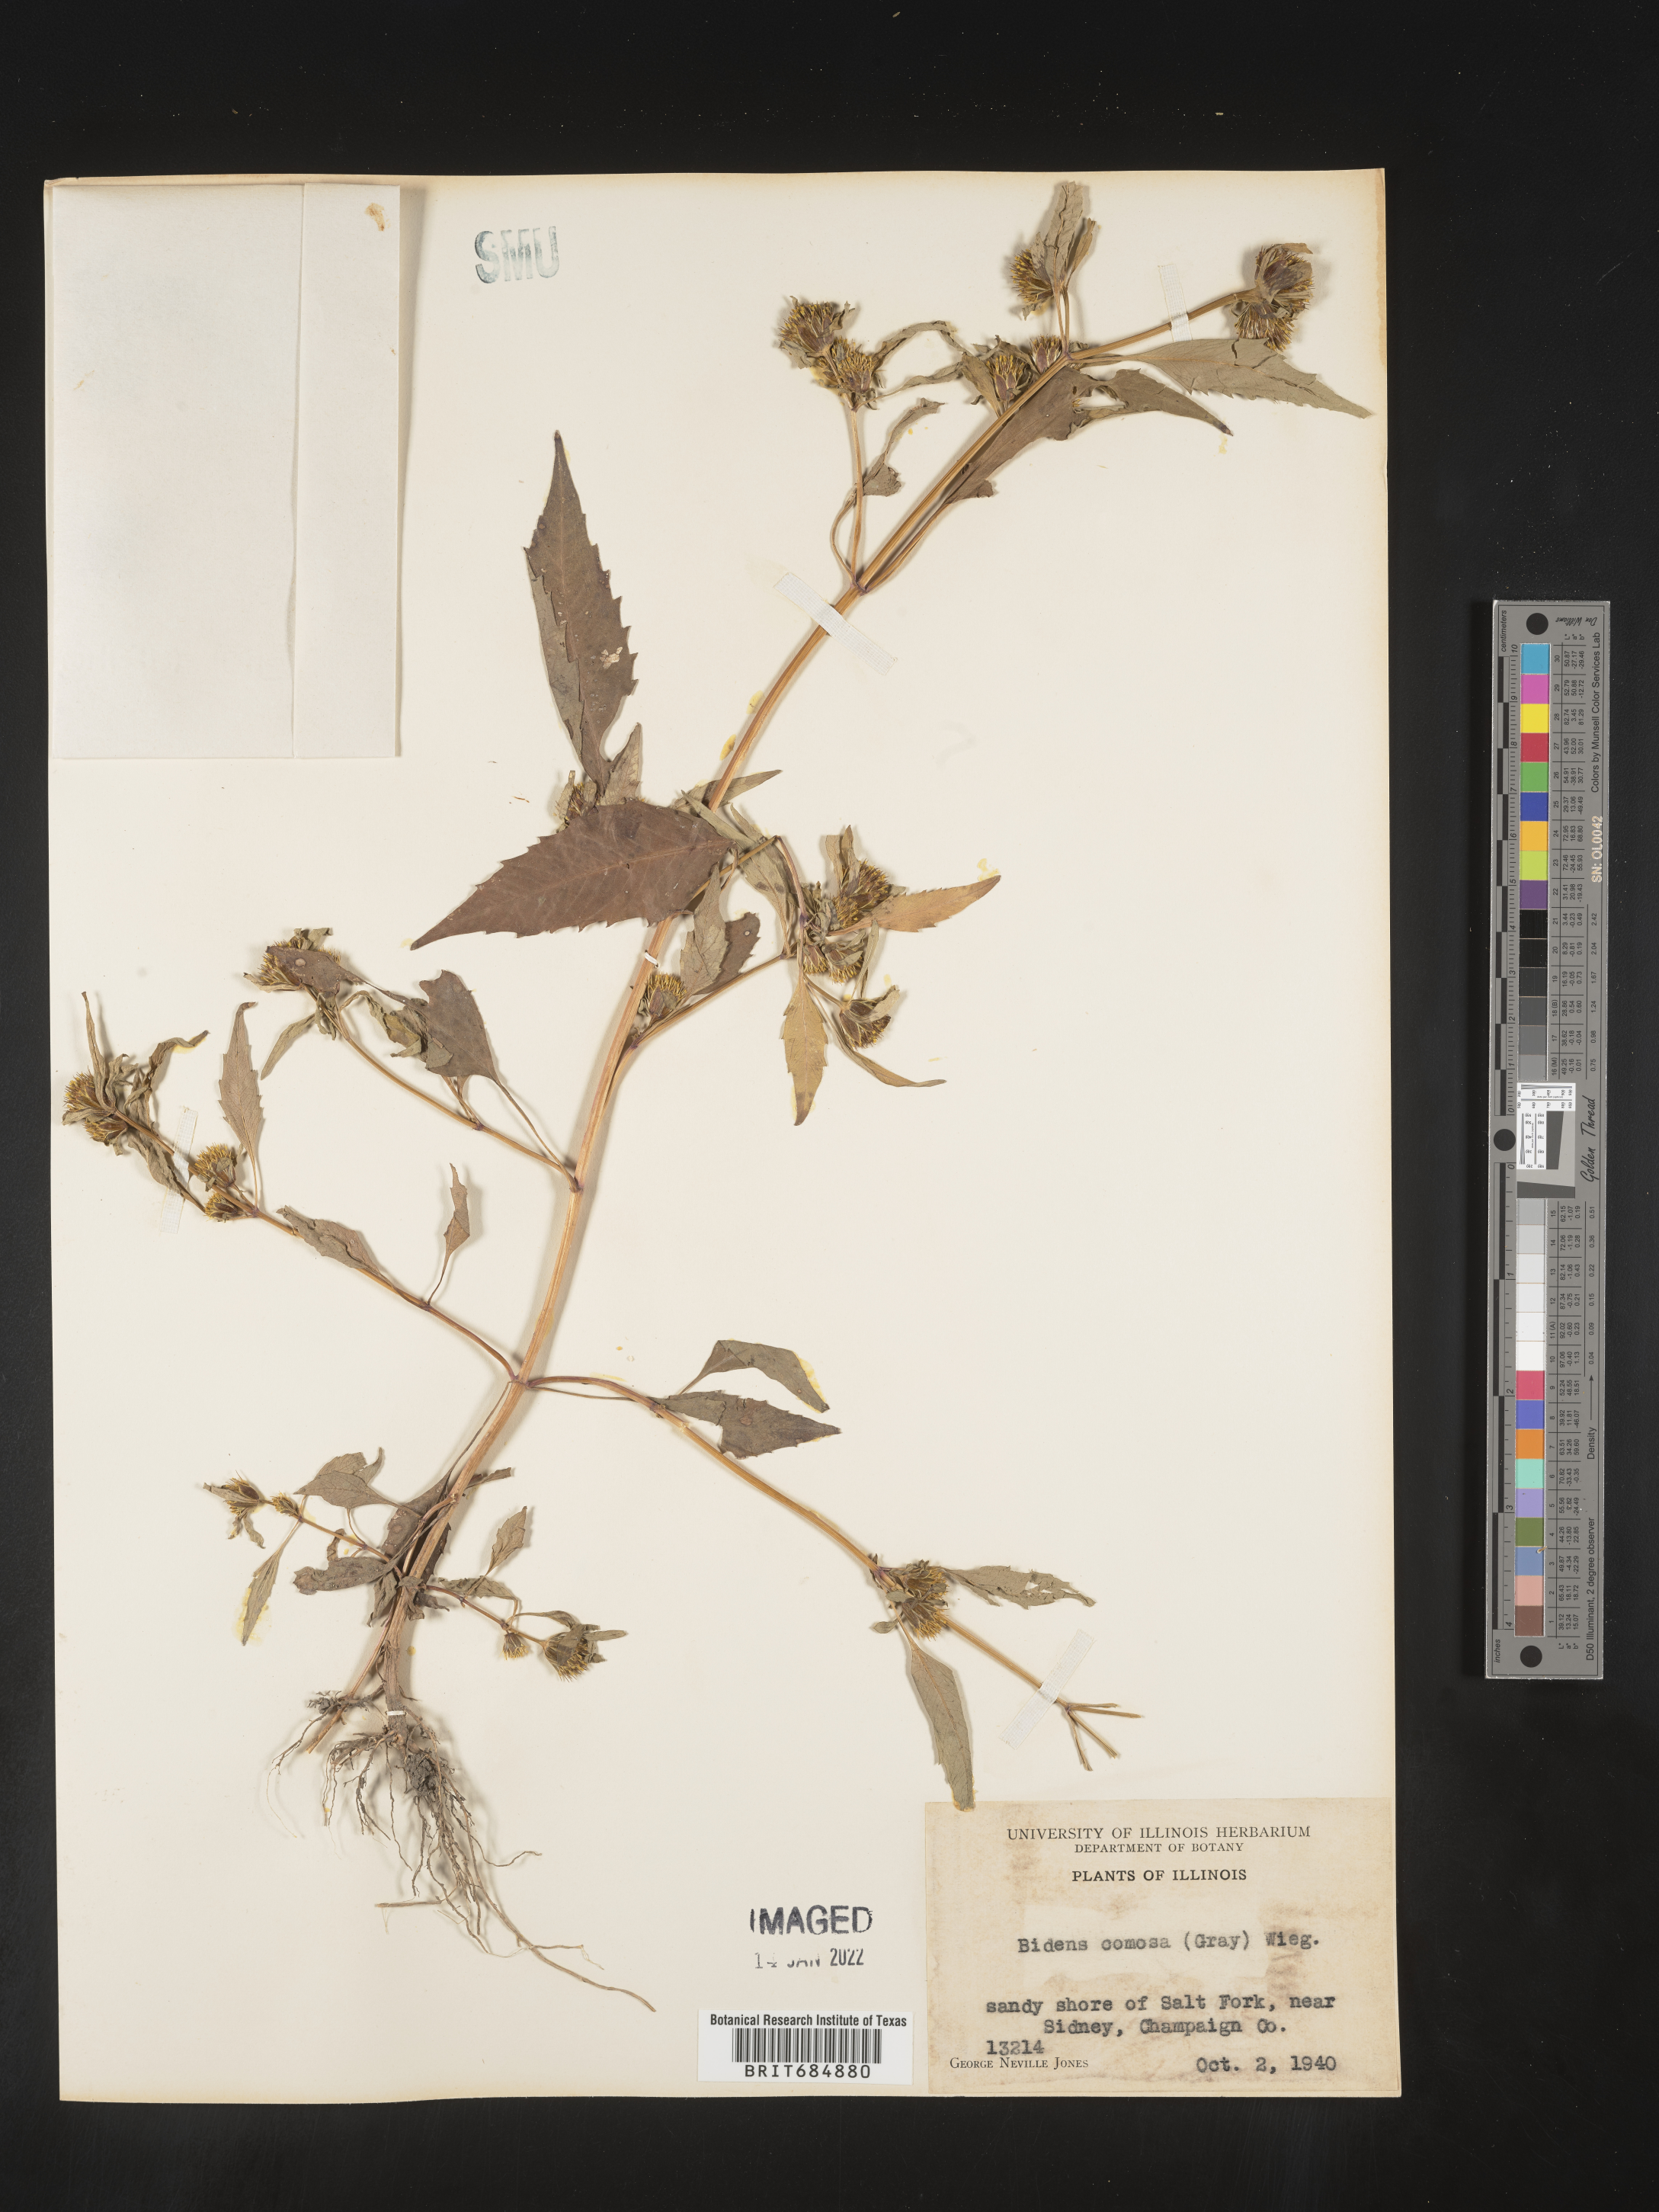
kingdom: Plantae
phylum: Tracheophyta
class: Magnoliopsida
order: Asterales
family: Asteraceae
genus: Bidens
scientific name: Bidens tripartita
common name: Trifid bur-marigold
